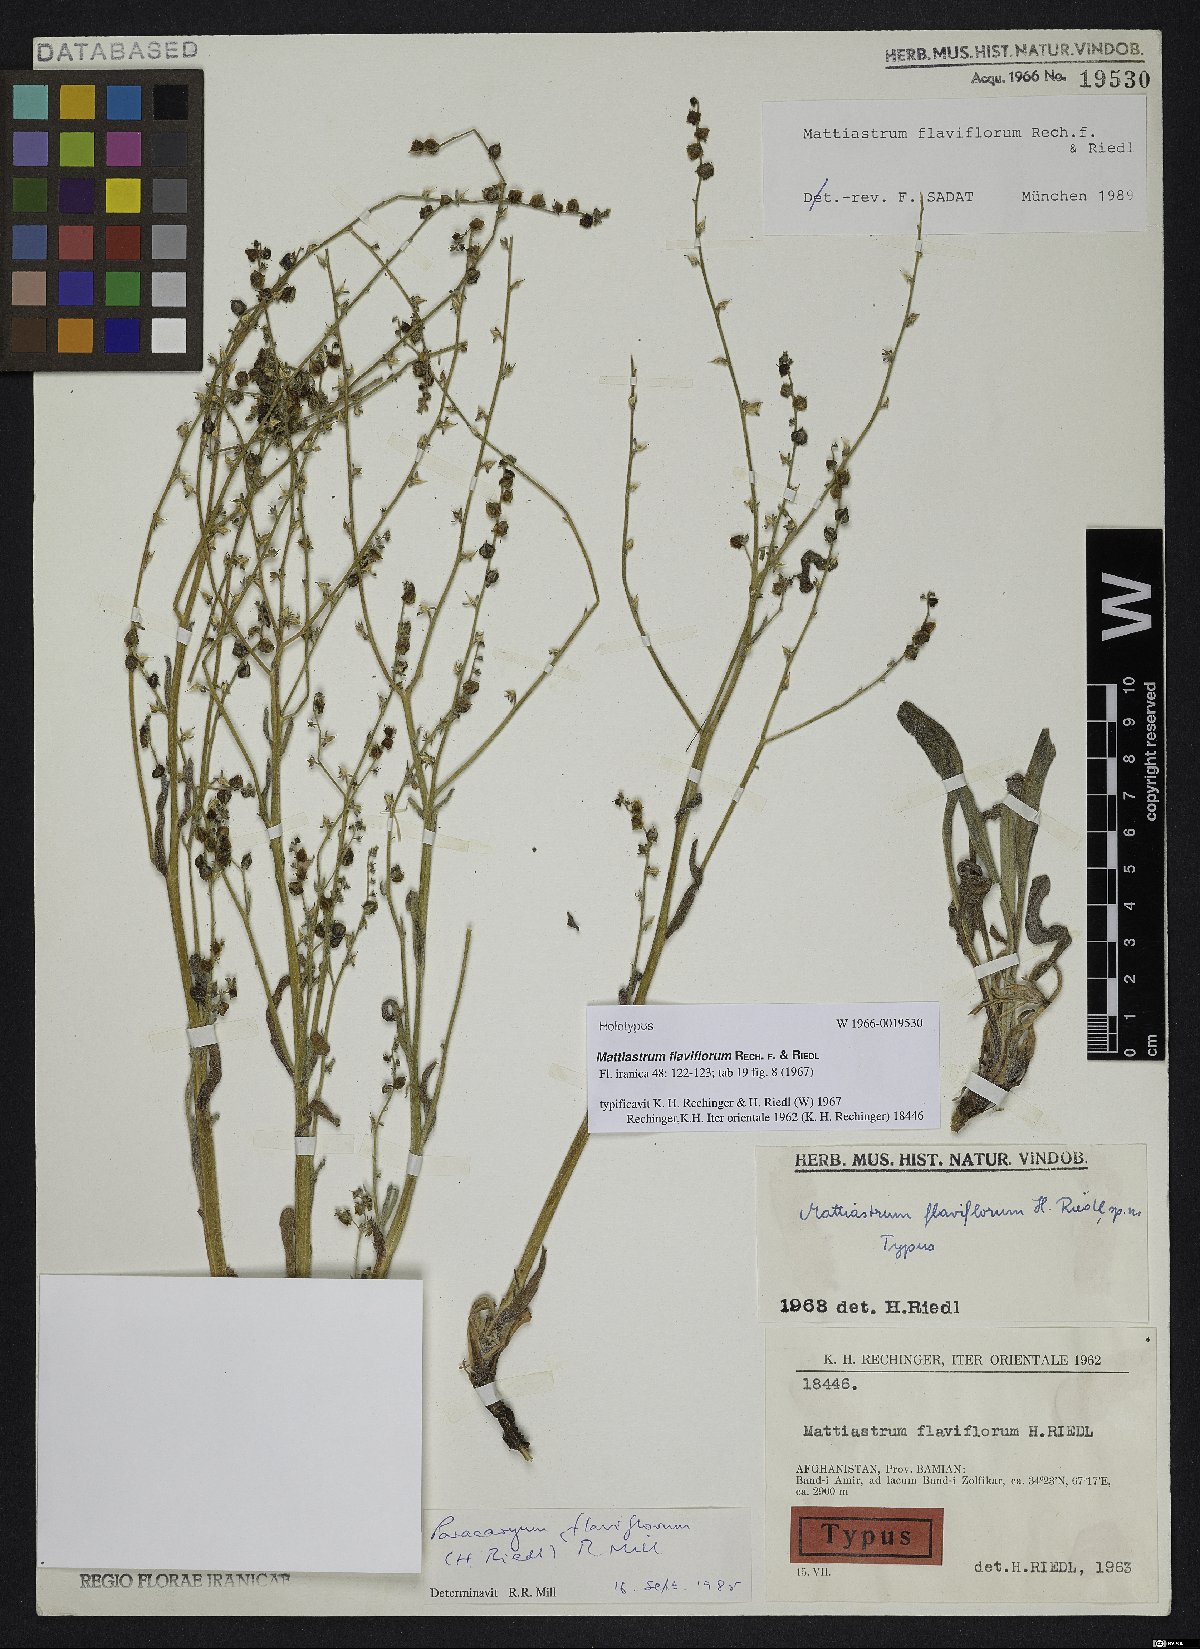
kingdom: Plantae
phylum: Tracheophyta
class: Magnoliopsida
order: Boraginales
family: Boraginaceae
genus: Paracaryum
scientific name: Paracaryum flaviflorum
